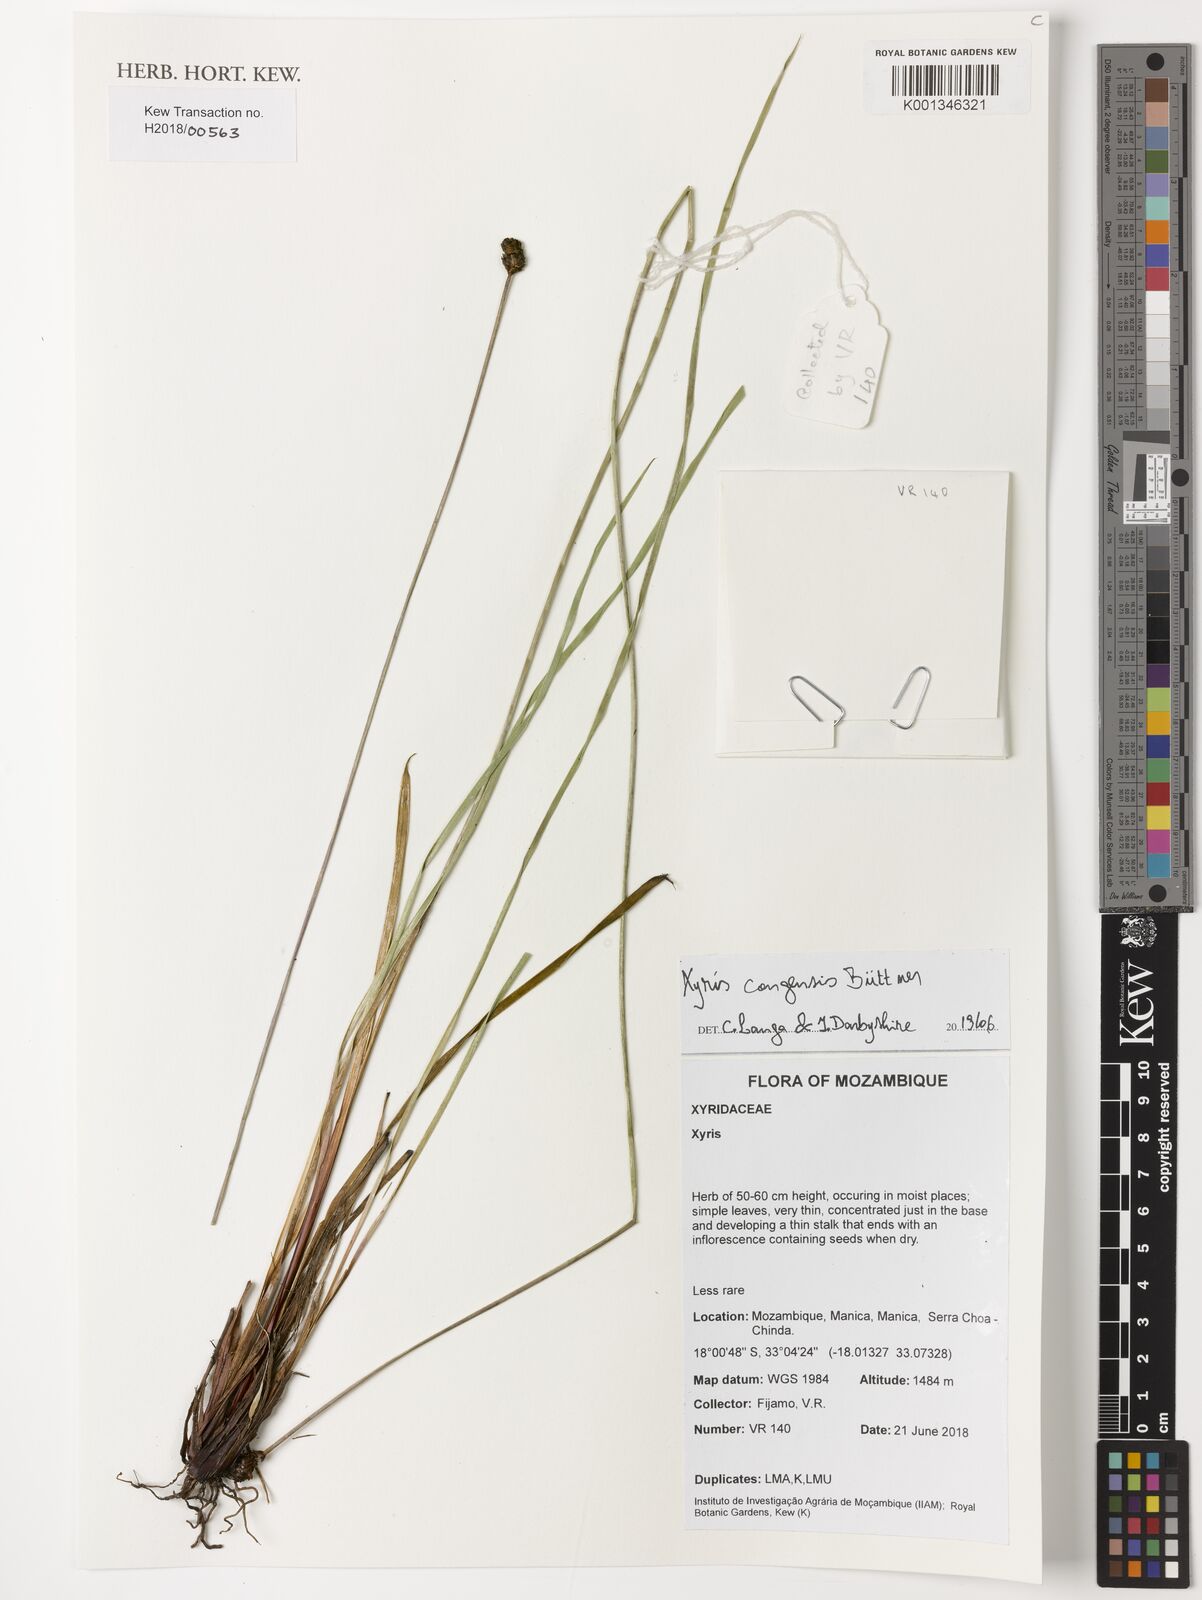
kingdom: Plantae
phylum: Tracheophyta
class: Liliopsida
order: Poales
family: Xyridaceae
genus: Xyris
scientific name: Xyris congensis
